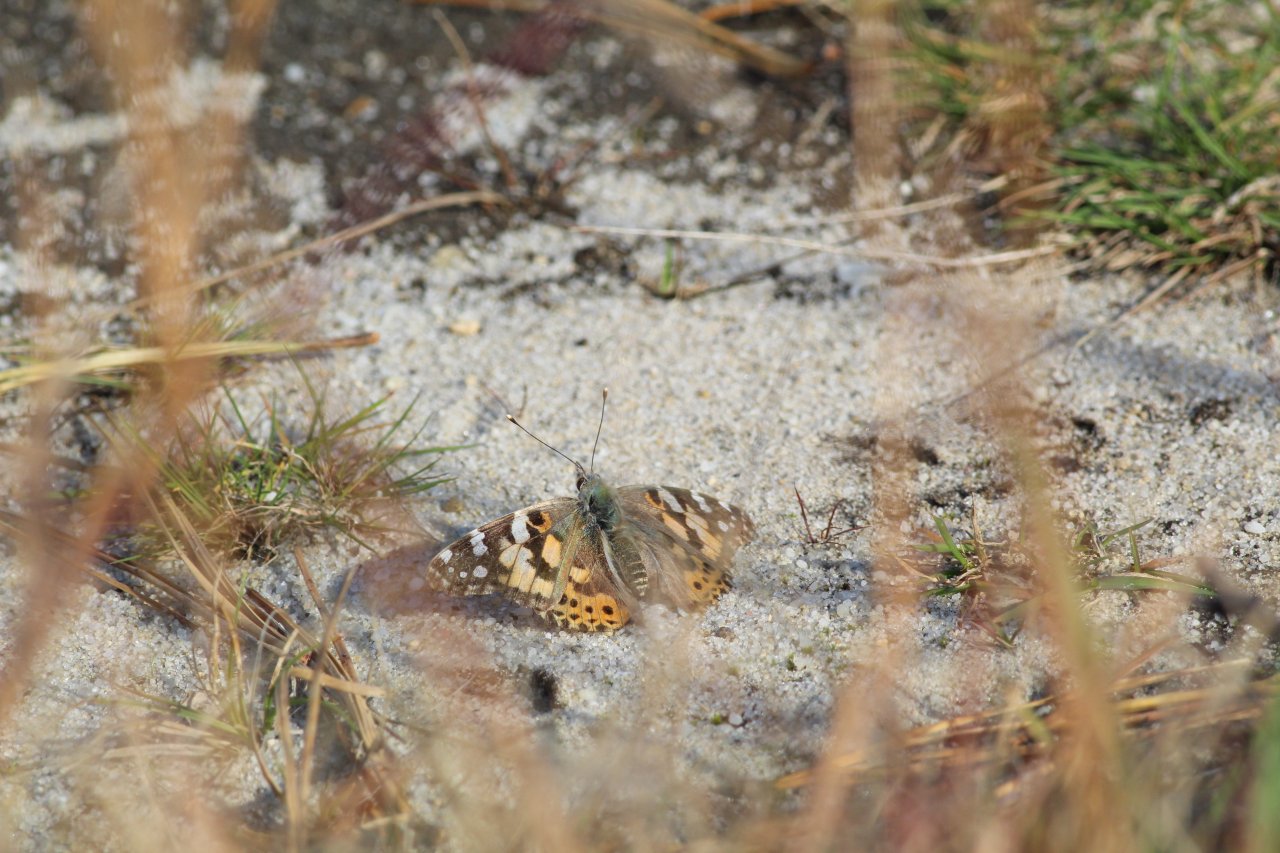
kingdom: Animalia
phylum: Arthropoda
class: Insecta
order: Lepidoptera
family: Nymphalidae
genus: Vanessa
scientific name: Vanessa cardui
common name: Painted Lady
